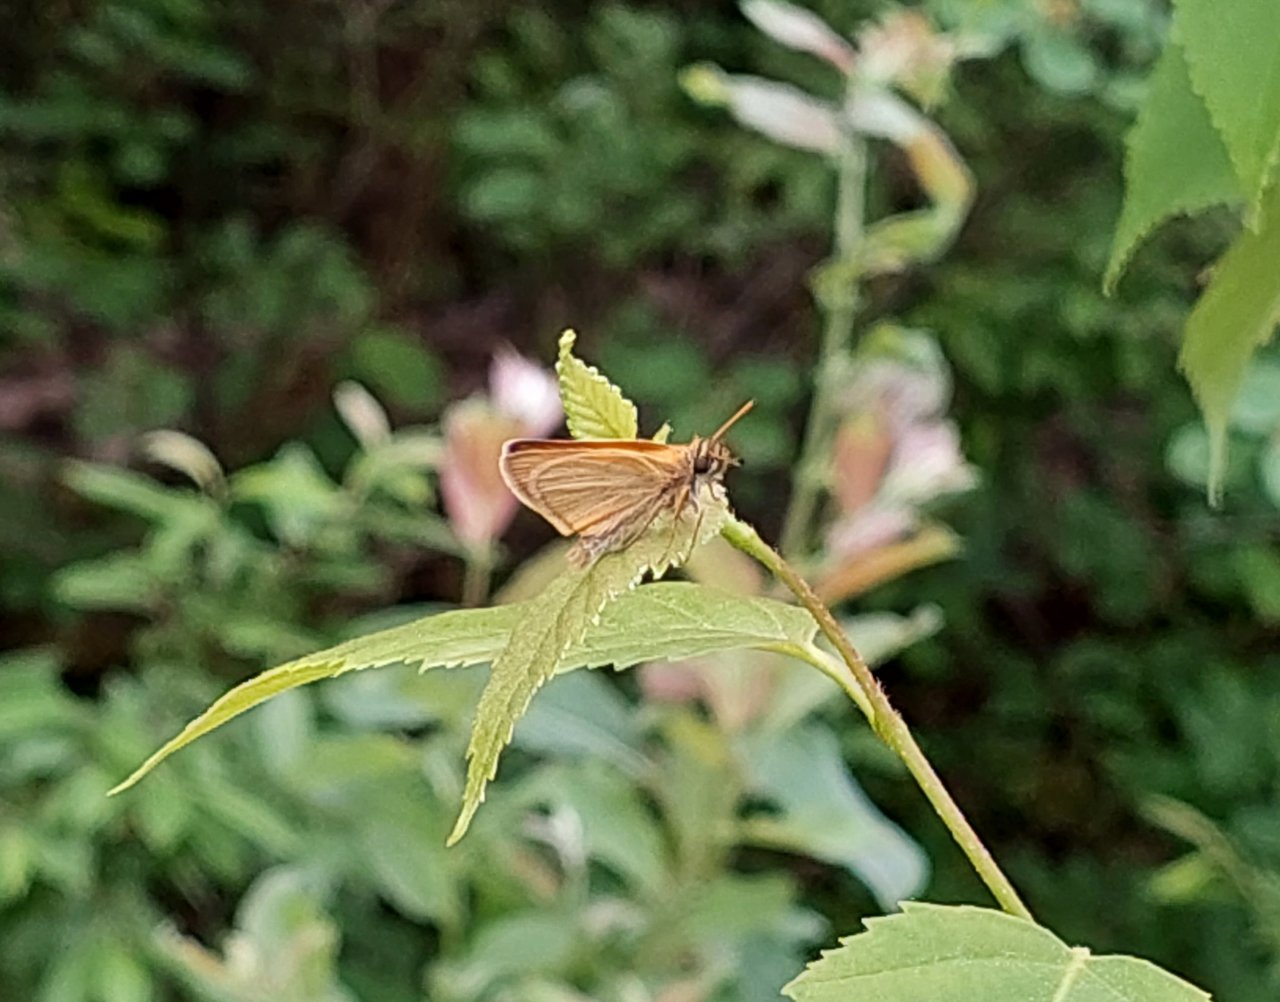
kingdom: Animalia
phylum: Arthropoda
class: Insecta
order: Lepidoptera
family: Hesperiidae
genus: Thymelicus
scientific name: Thymelicus lineola
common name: European Skipper
